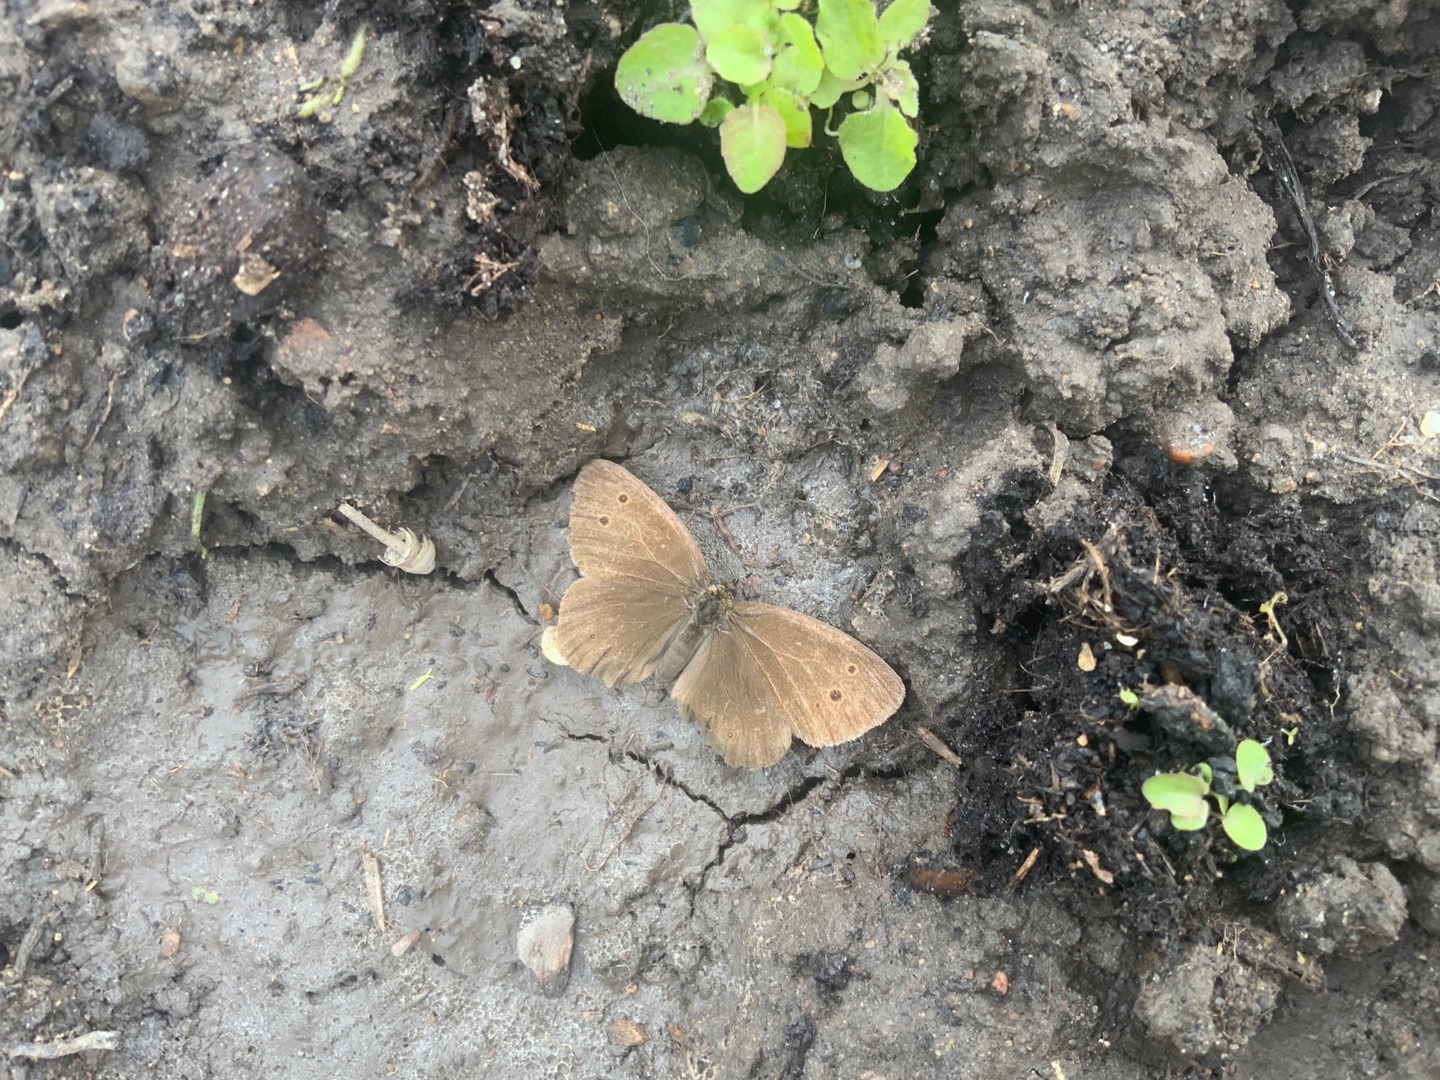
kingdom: Animalia
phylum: Arthropoda
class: Insecta
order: Lepidoptera
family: Nymphalidae
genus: Aphantopus
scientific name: Aphantopus hyperantus
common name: Engrandøje
